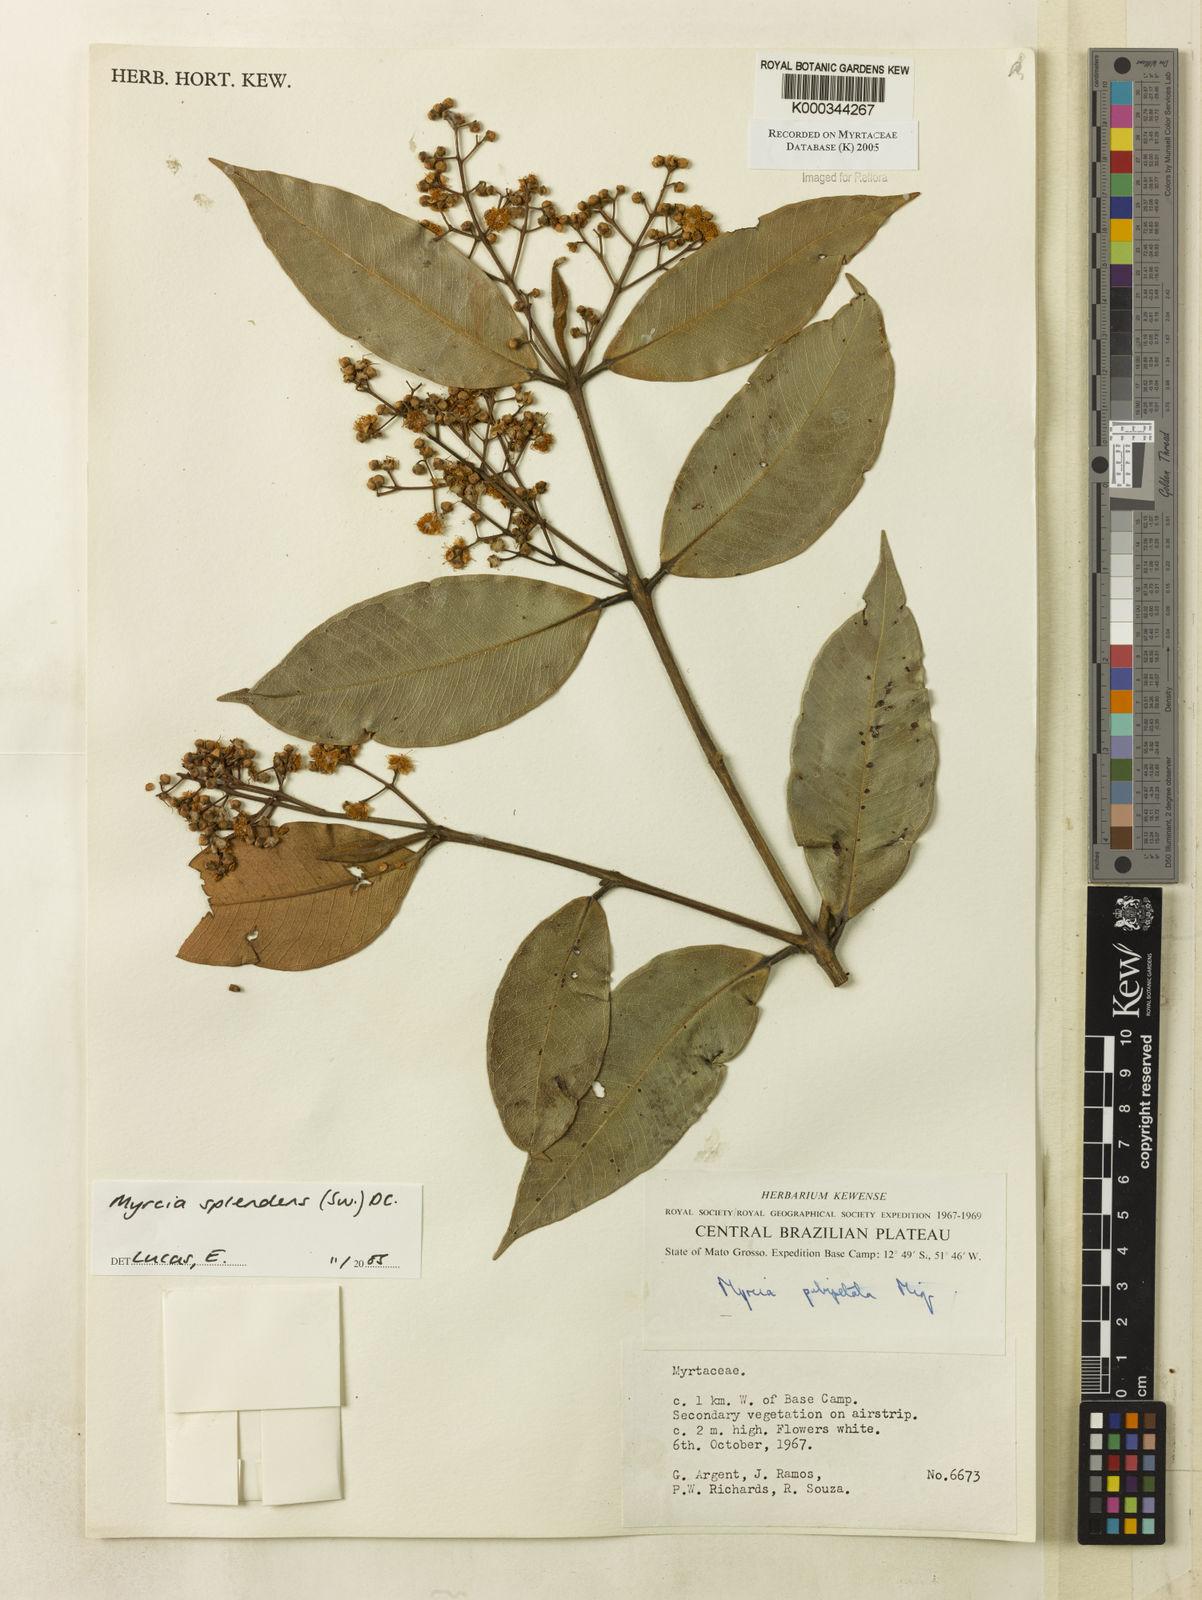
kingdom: Plantae
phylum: Tracheophyta
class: Magnoliopsida
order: Myrtales
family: Myrtaceae
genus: Myrcia
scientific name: Myrcia splendens
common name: Surinam cherry
